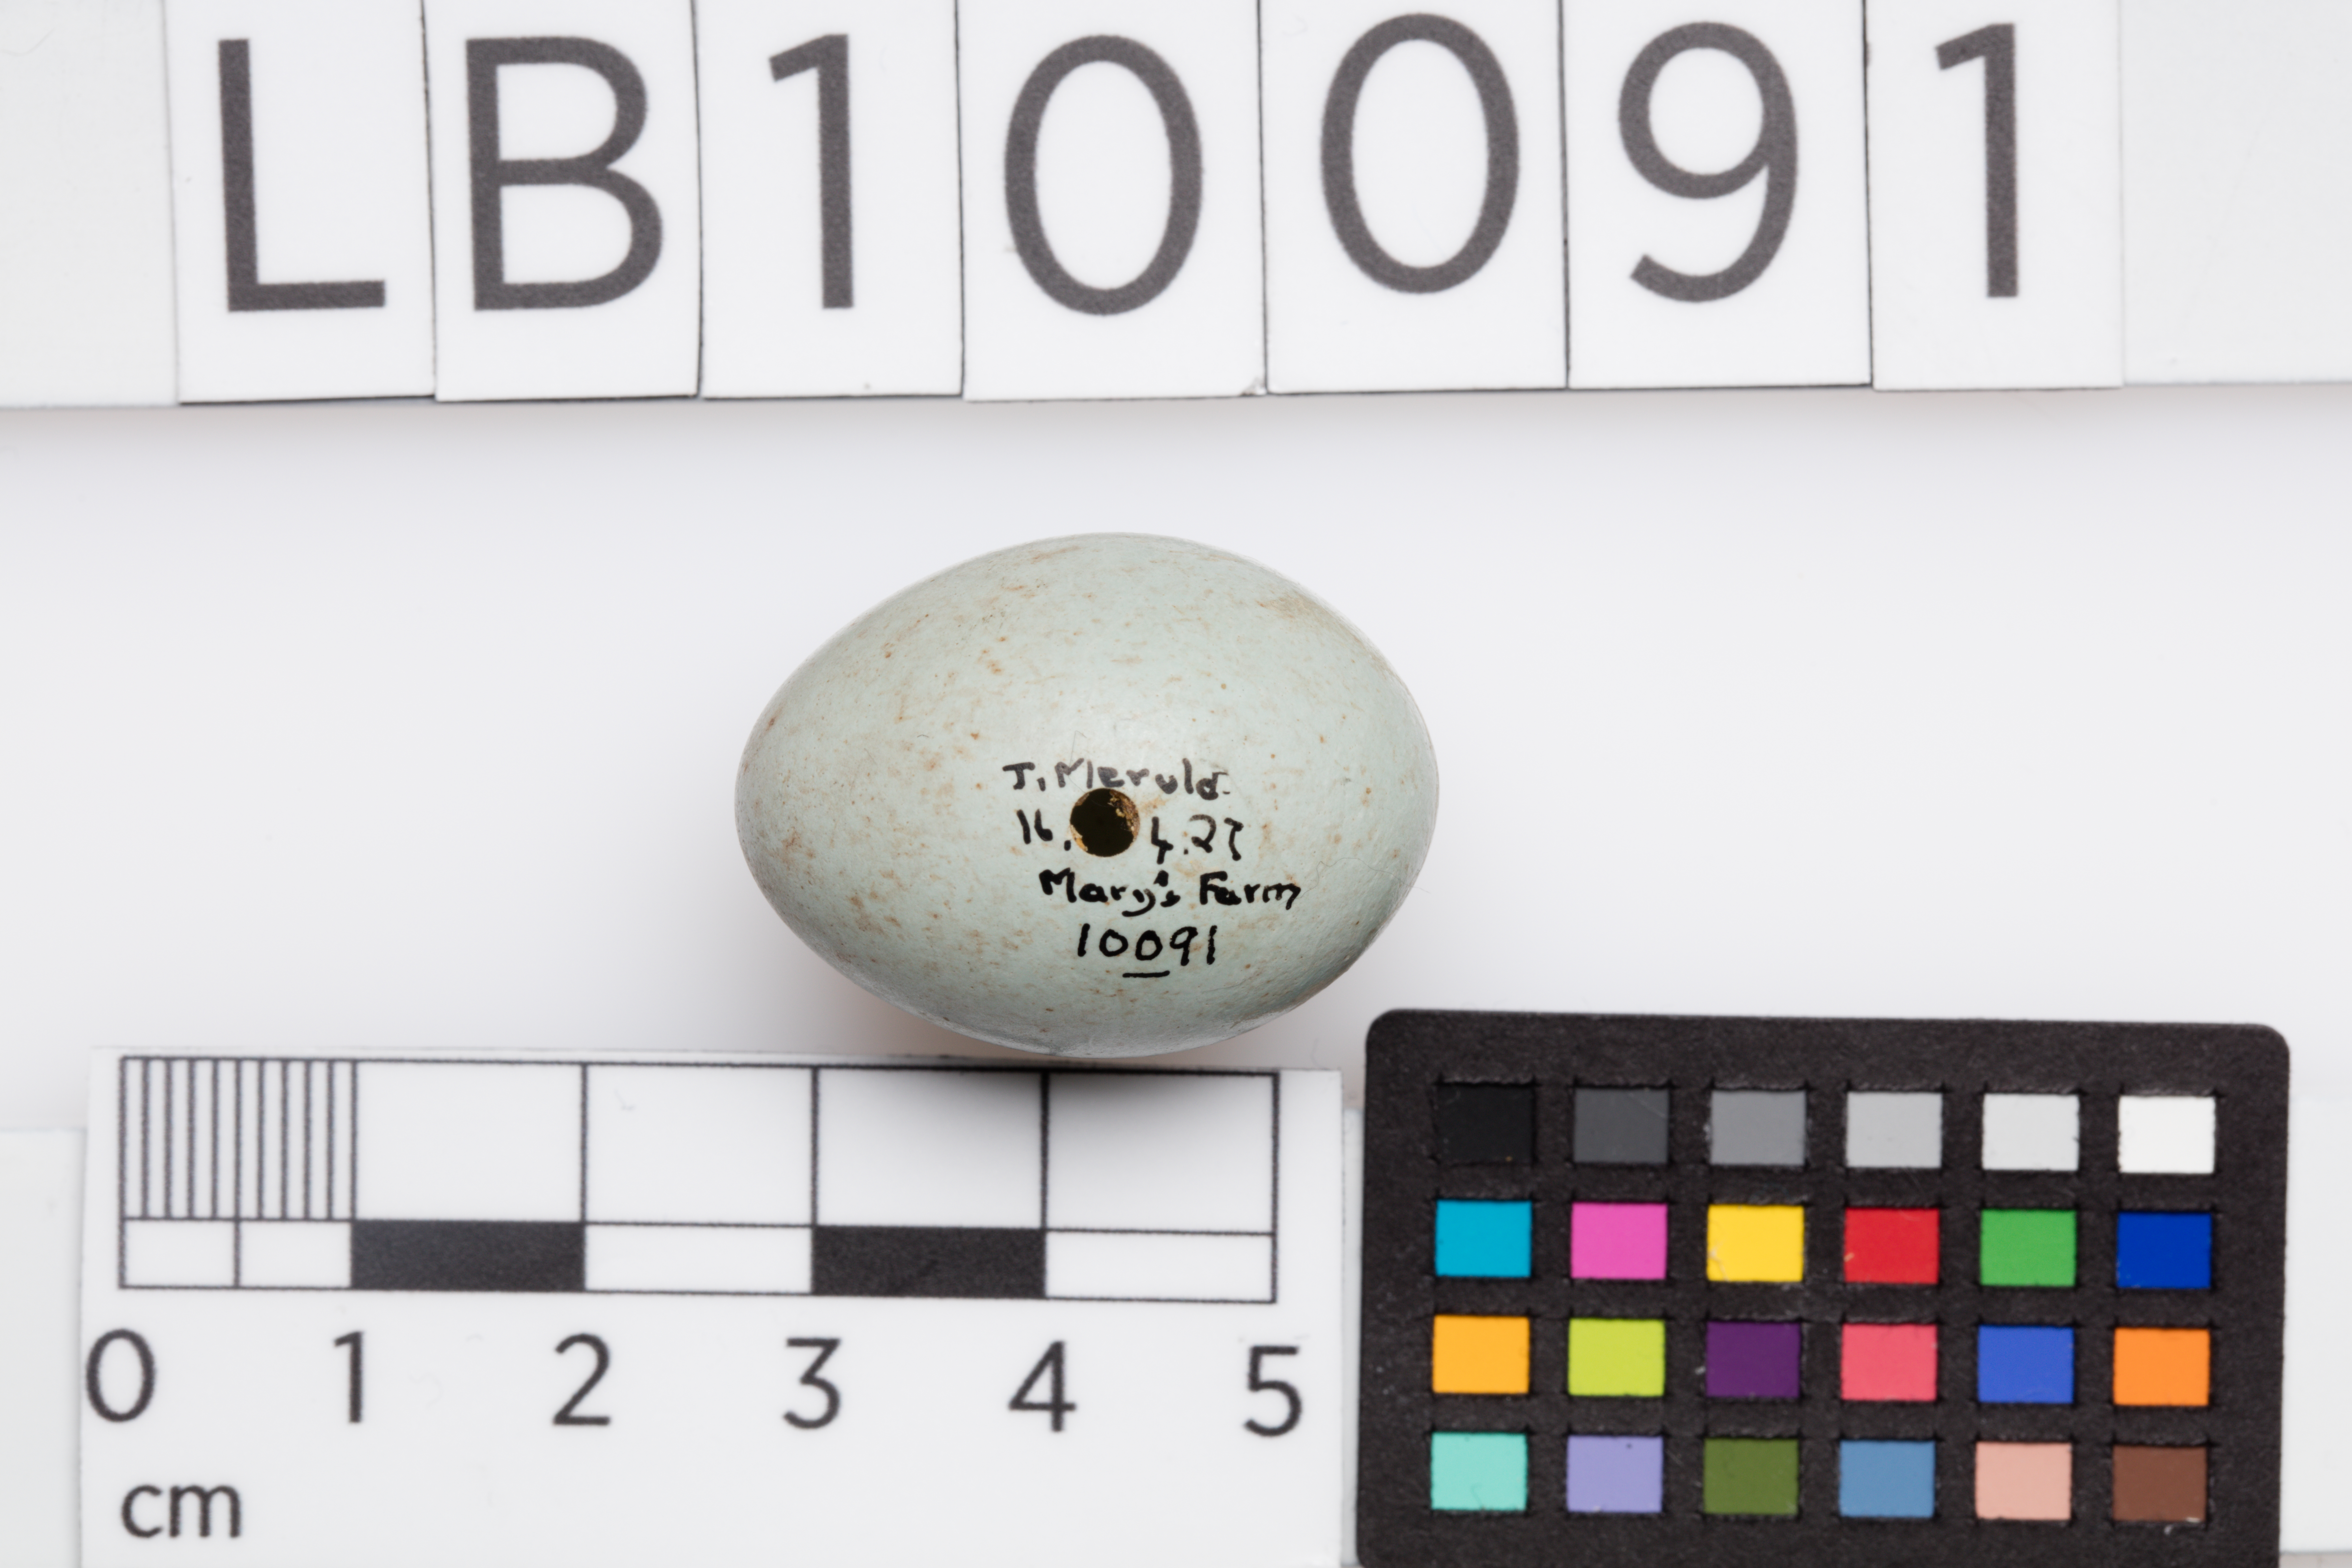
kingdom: Animalia
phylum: Chordata
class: Aves
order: Passeriformes
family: Turdidae
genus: Turdus
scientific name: Turdus merula
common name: Common blackbird
